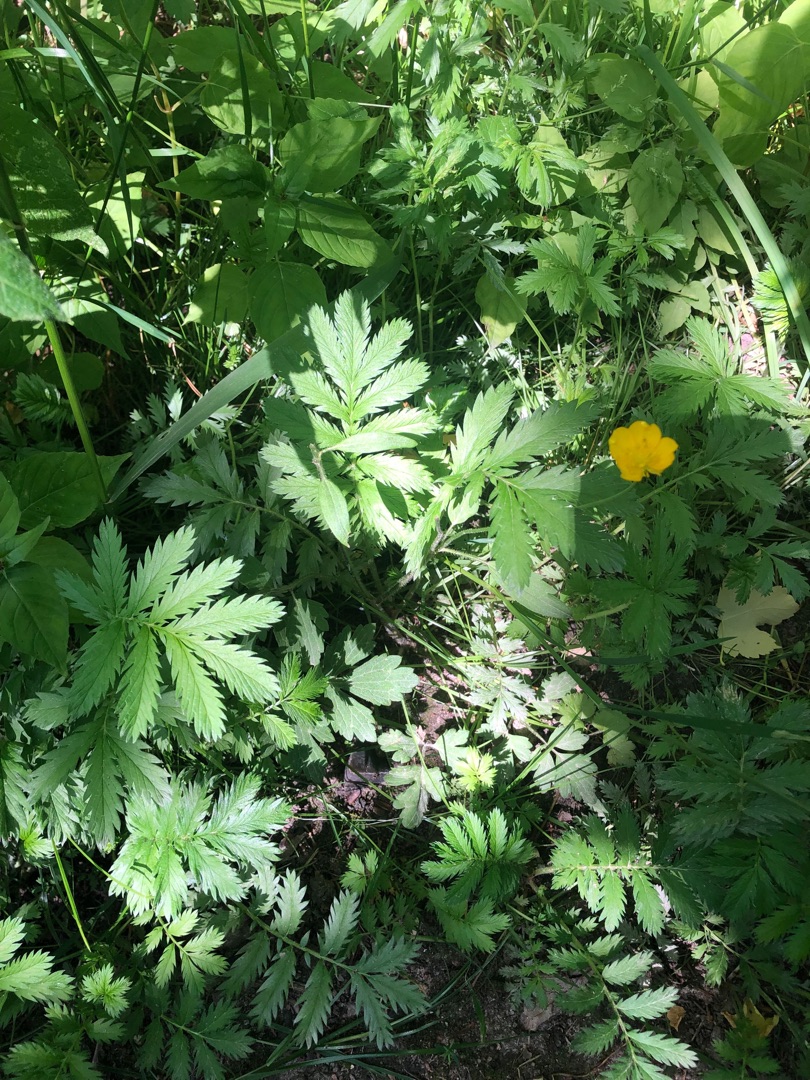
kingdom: Plantae
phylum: Tracheophyta
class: Magnoliopsida
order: Rosales
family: Rosaceae
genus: Argentina
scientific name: Argentina anserina
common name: Gåsepotentil
